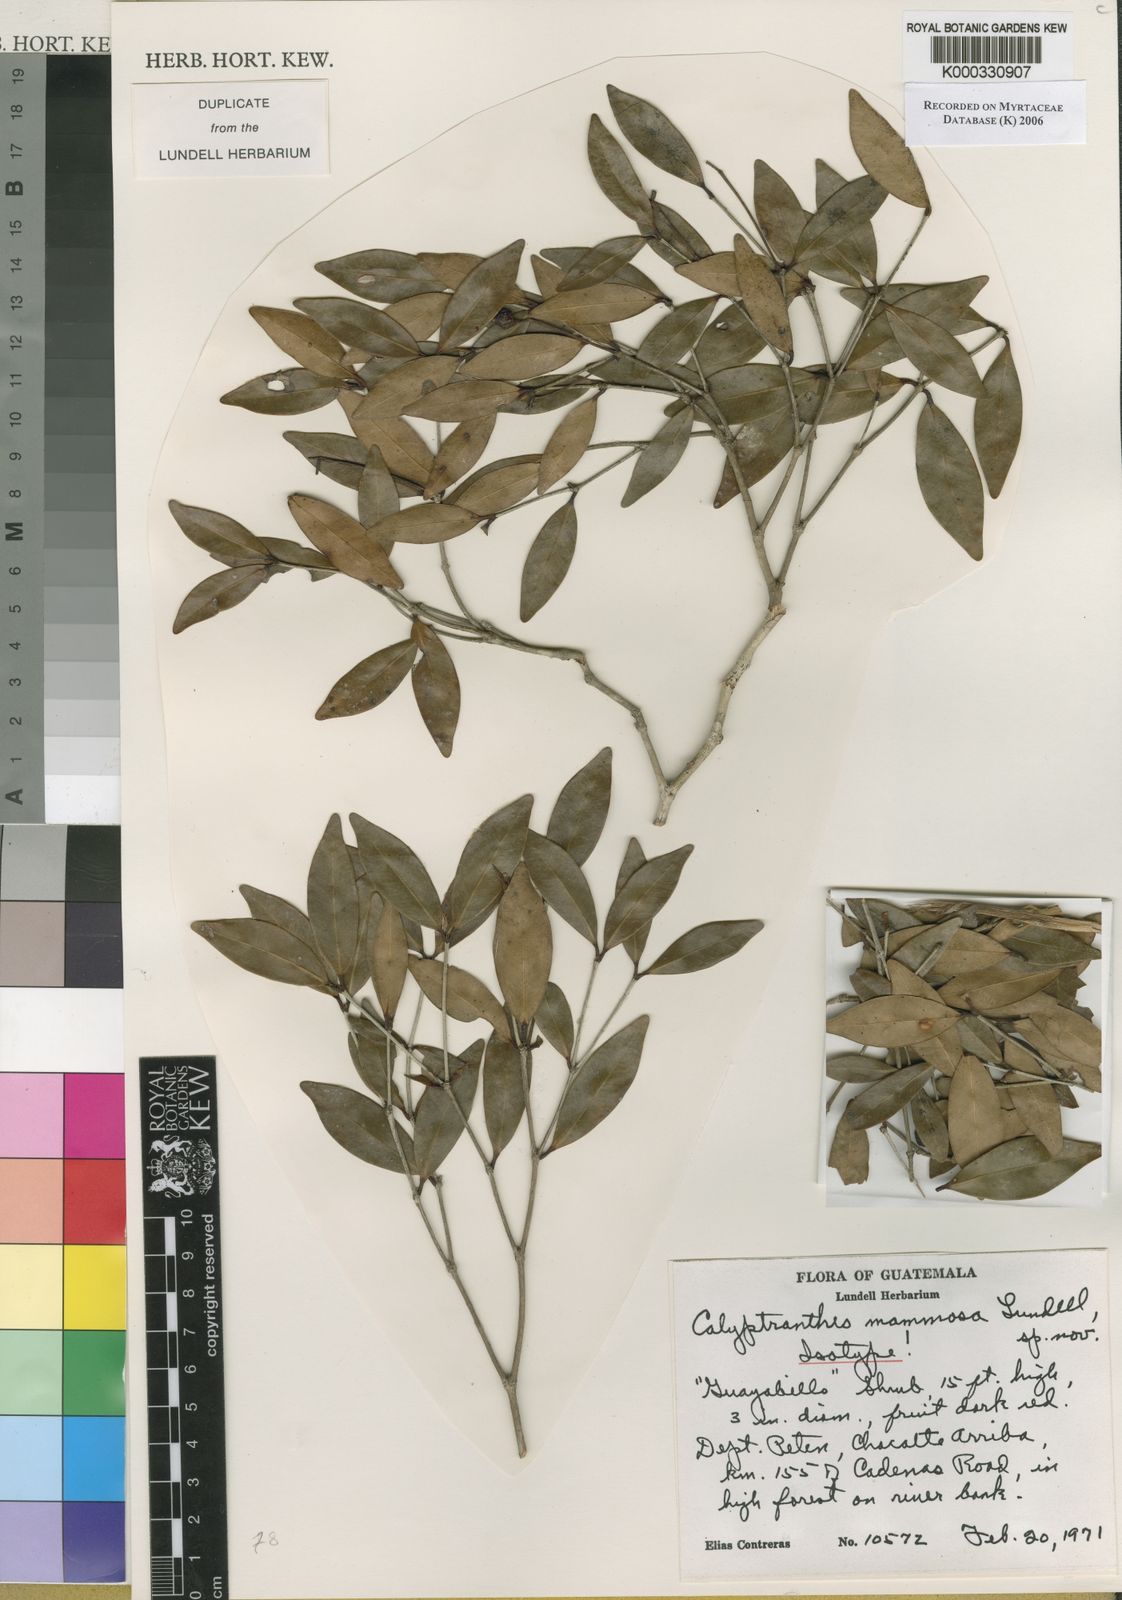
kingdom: Plantae
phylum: Tracheophyta
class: Magnoliopsida
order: Myrtales
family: Myrtaceae
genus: Myrcia
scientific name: Myrcia mammosa
